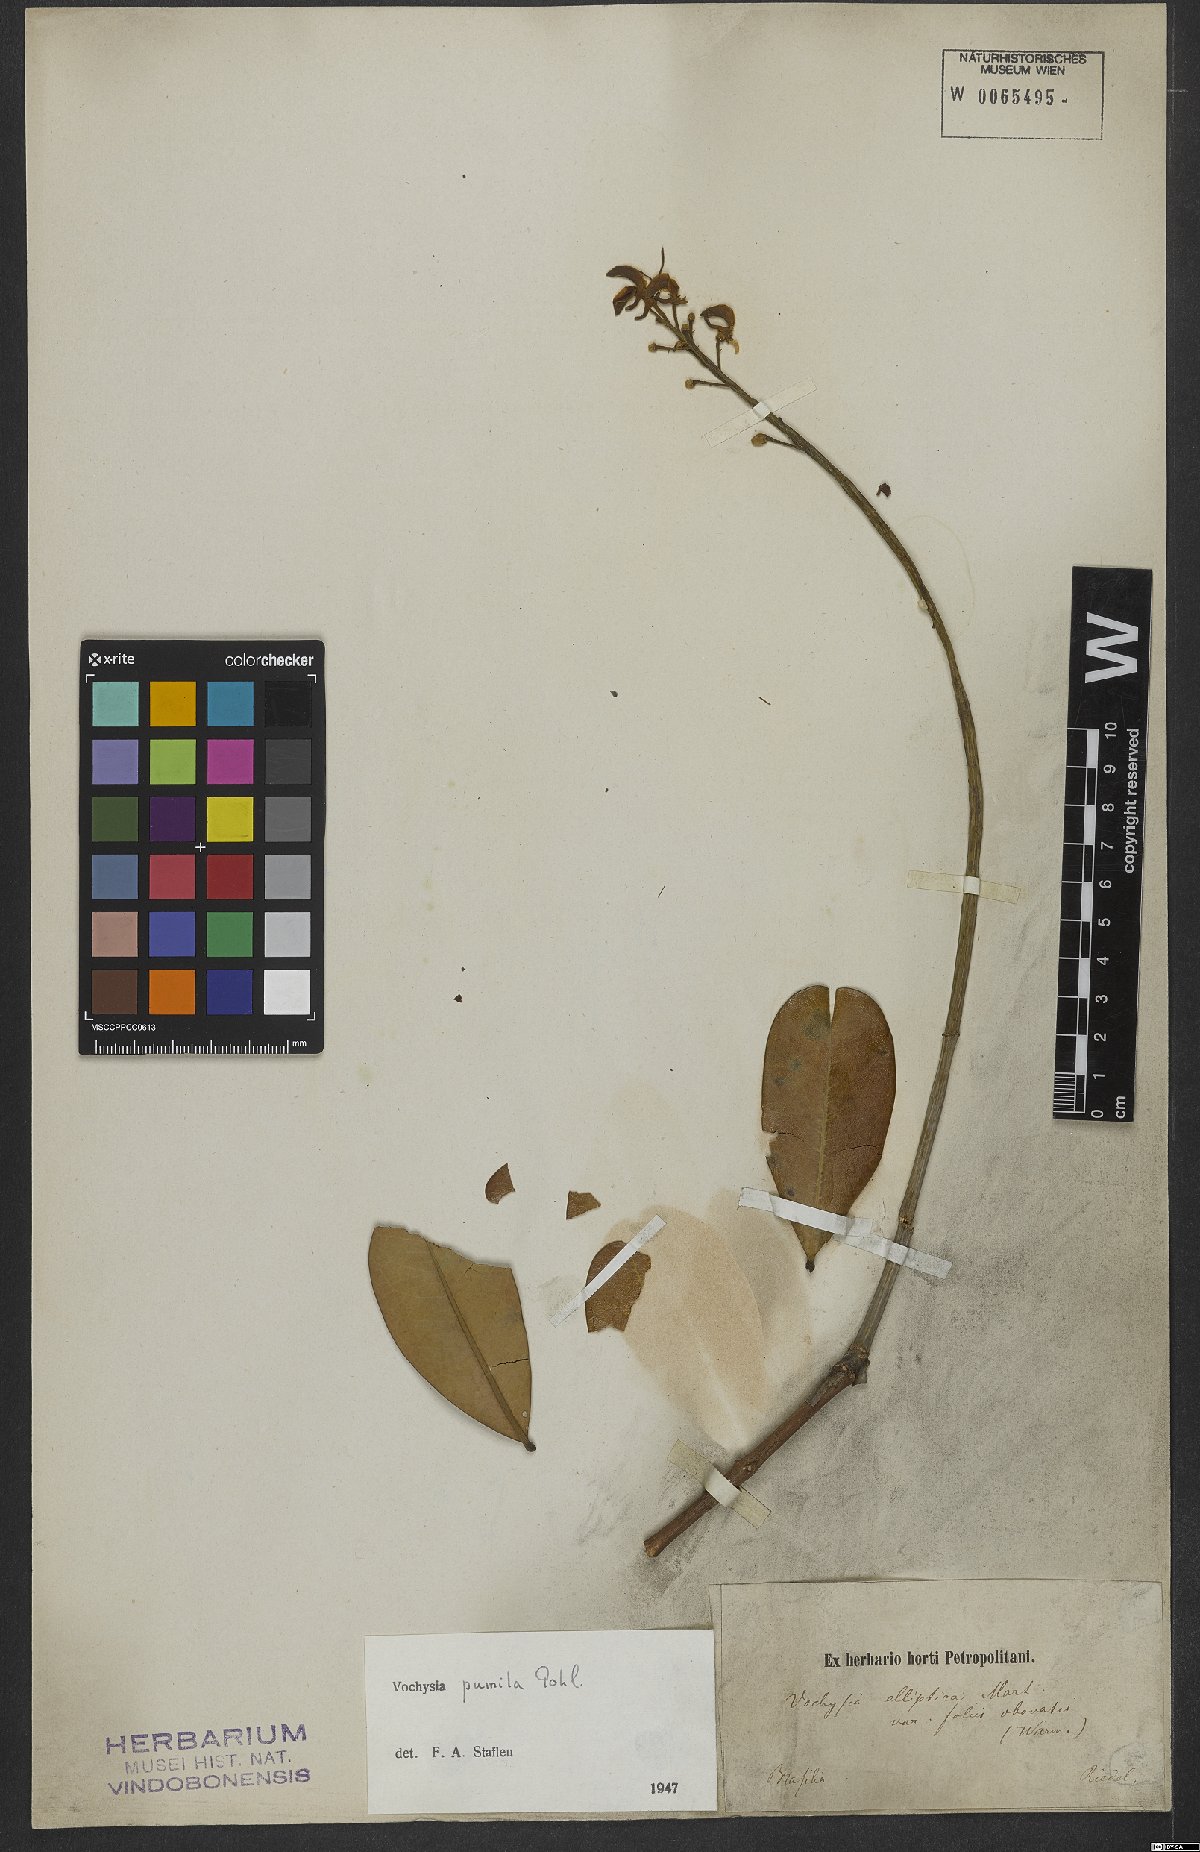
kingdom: Plantae
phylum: Tracheophyta
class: Magnoliopsida
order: Myrtales
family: Vochysiaceae
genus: Vochysia
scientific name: Vochysia pumila
